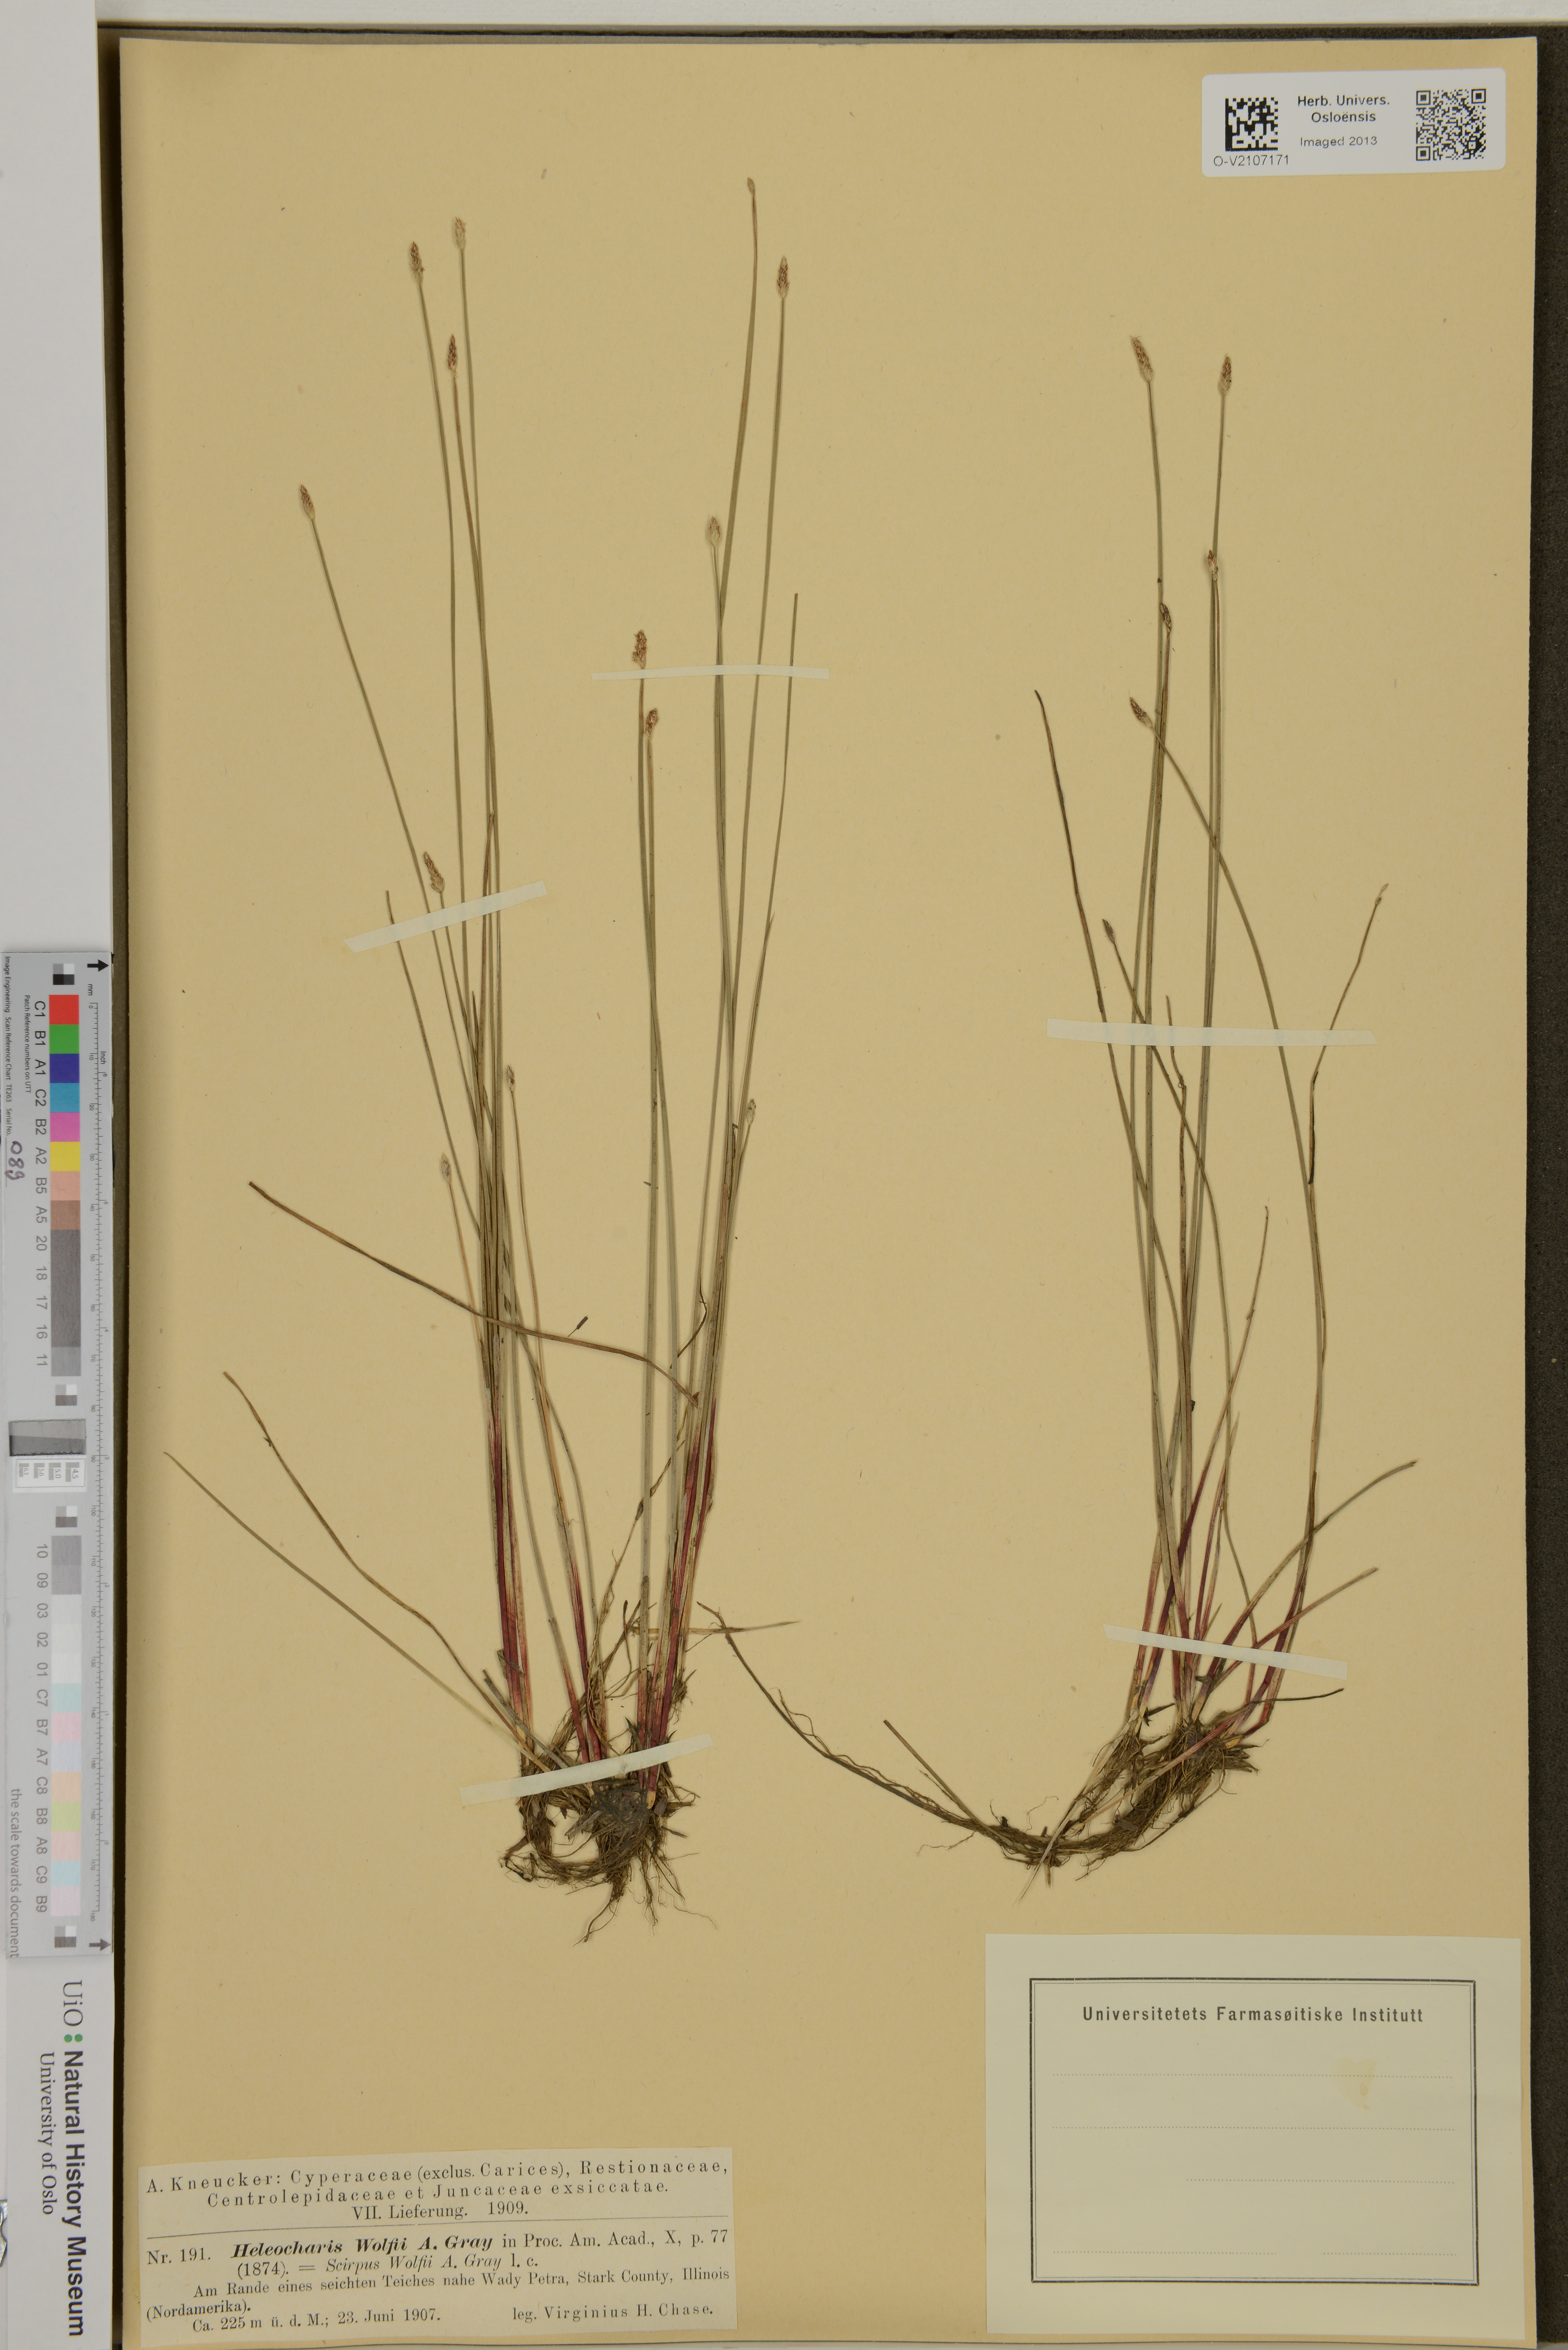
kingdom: Plantae
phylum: Tracheophyta
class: Liliopsida
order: Poales
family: Cyperaceae
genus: Eleocharis
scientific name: Eleocharis wolfii
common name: Wolf's spikerush
